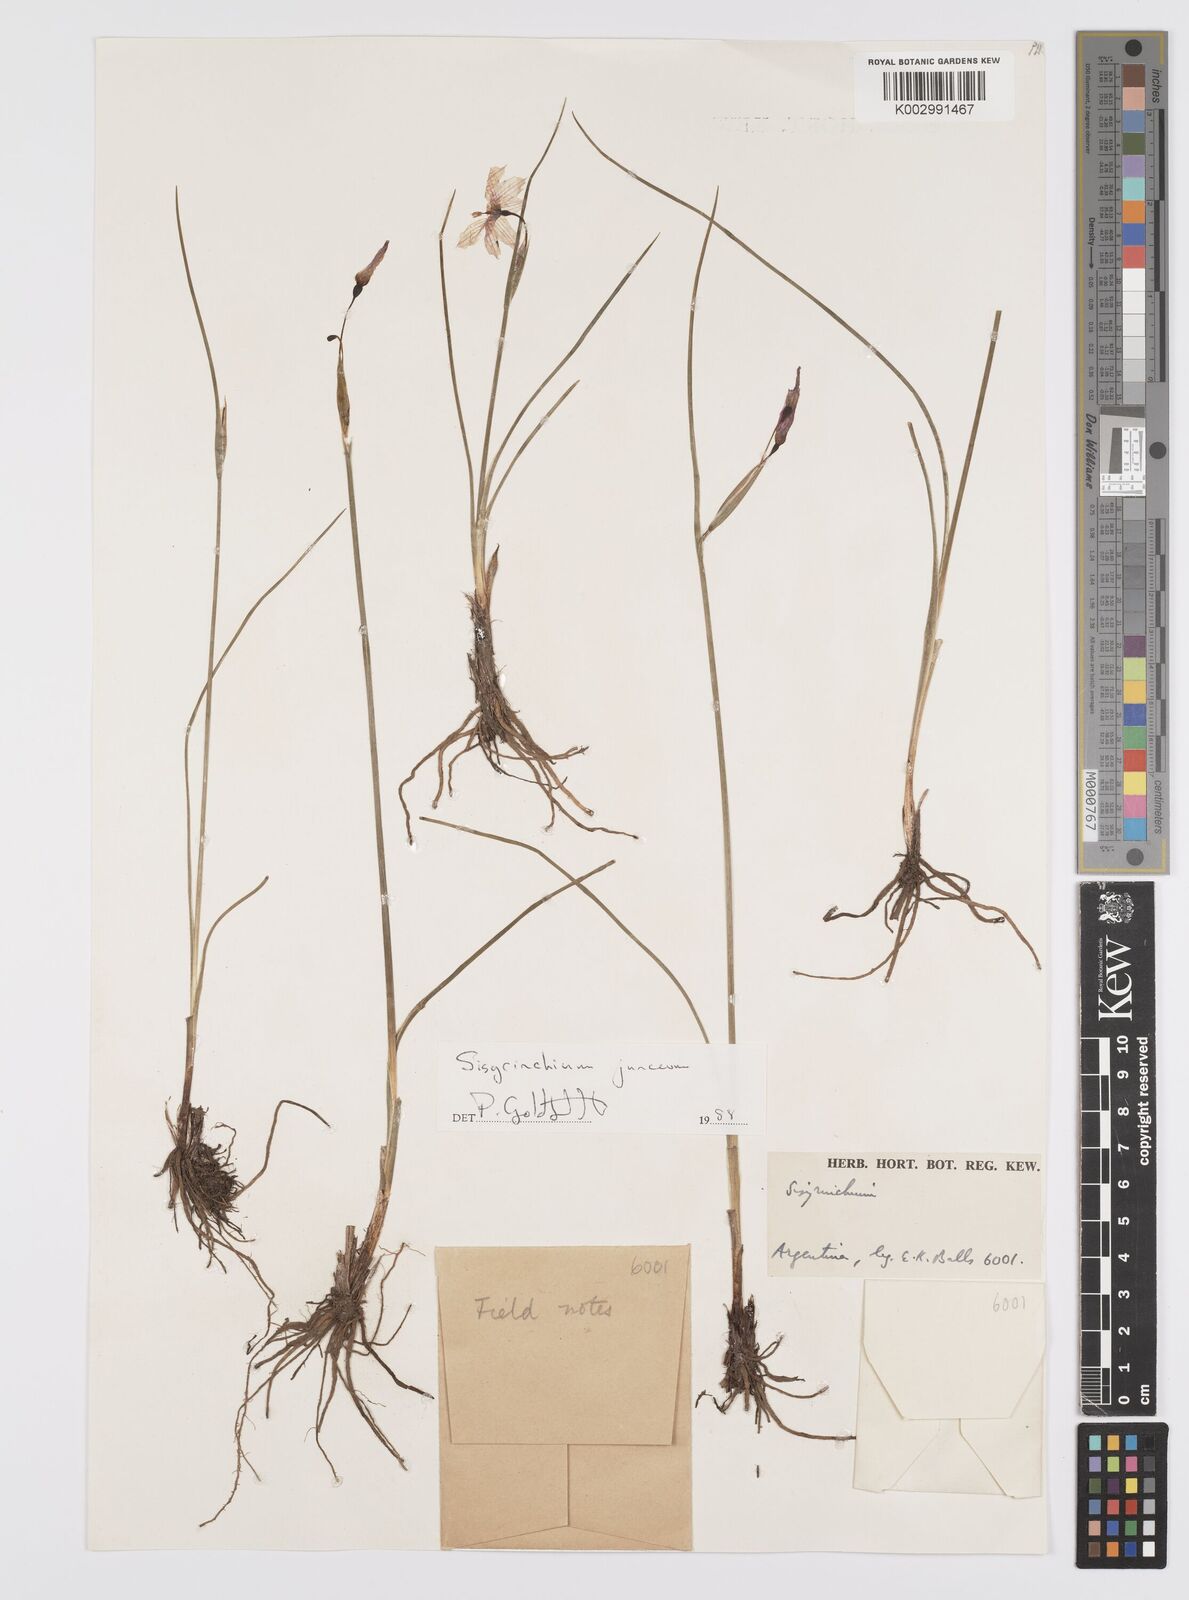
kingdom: Plantae
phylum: Tracheophyta
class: Liliopsida
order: Asparagales
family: Iridaceae
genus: Olsynium
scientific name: Olsynium junceum
